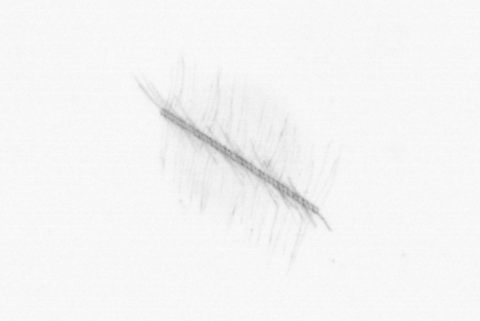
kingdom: Chromista
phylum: Ochrophyta
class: Bacillariophyceae
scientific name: Bacillariophyceae
